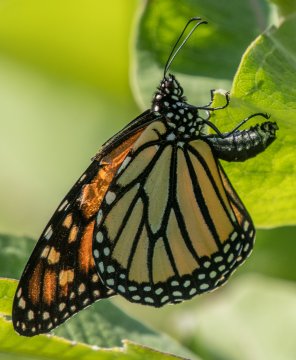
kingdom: Animalia
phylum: Arthropoda
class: Insecta
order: Lepidoptera
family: Nymphalidae
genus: Danaus
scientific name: Danaus plexippus
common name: Monarch
